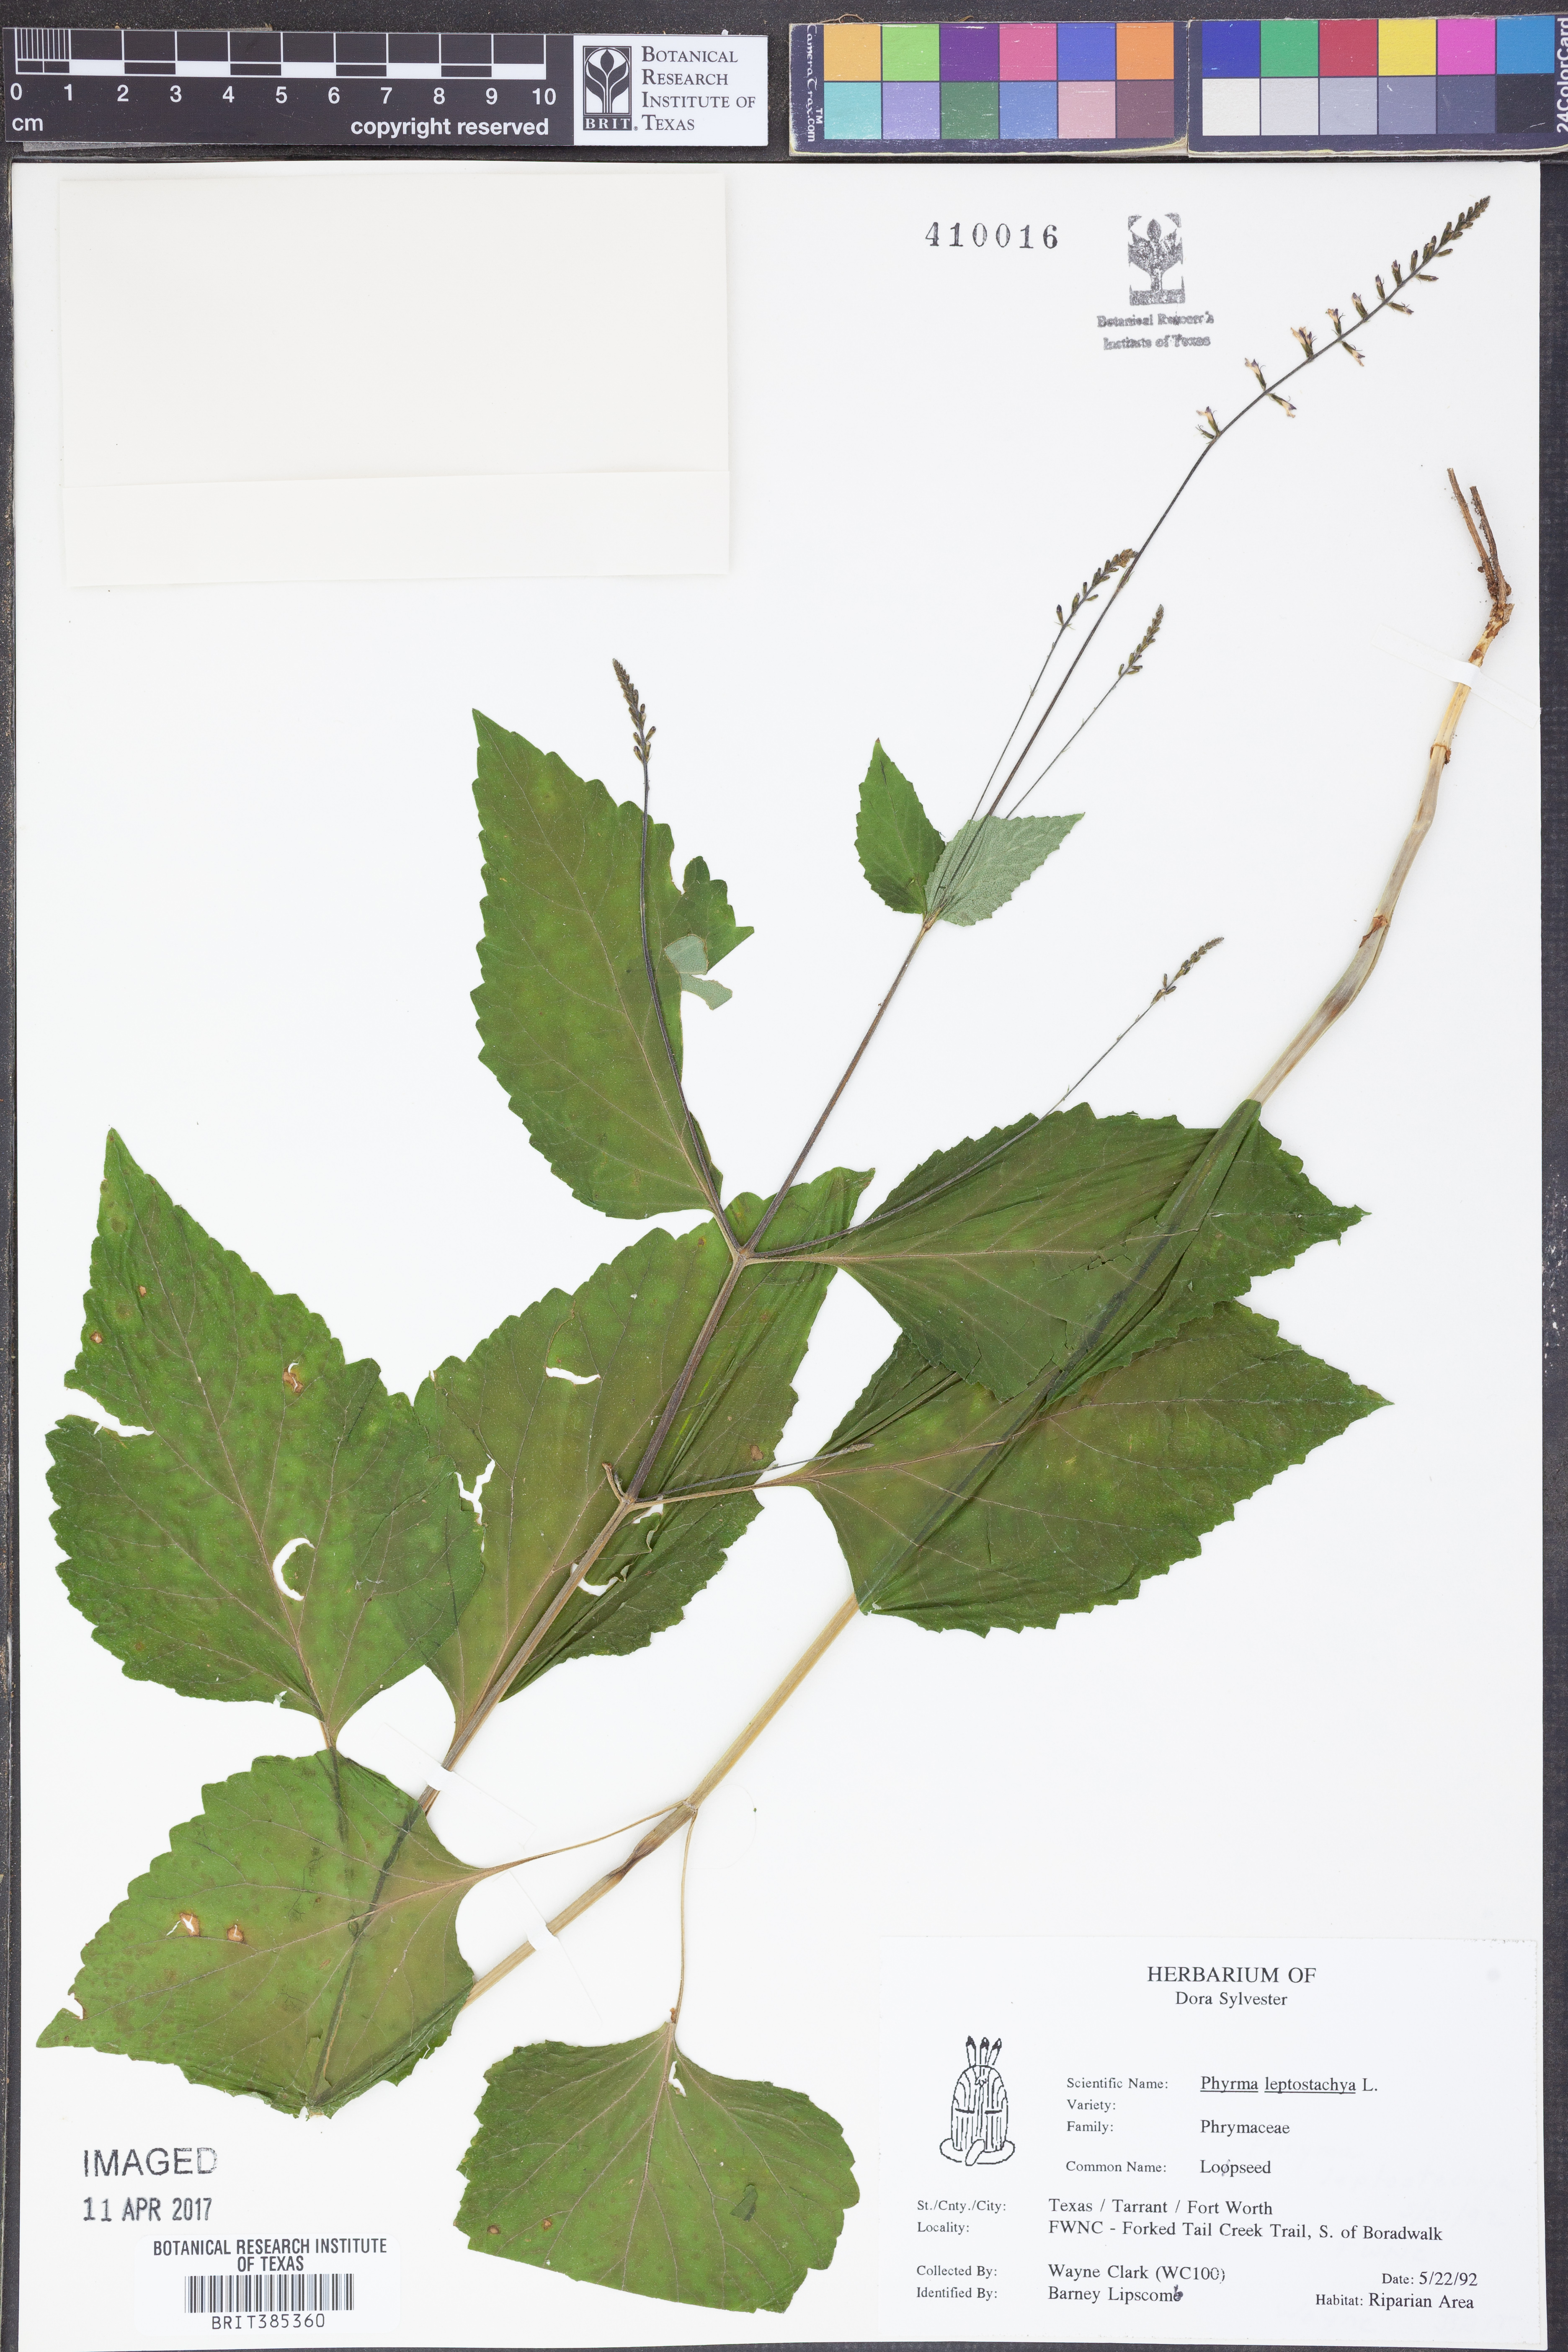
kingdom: Plantae
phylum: Tracheophyta
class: Magnoliopsida
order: Lamiales
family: Phrymaceae
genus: Phryma
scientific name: Phryma leptostachya
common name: American lopseed
